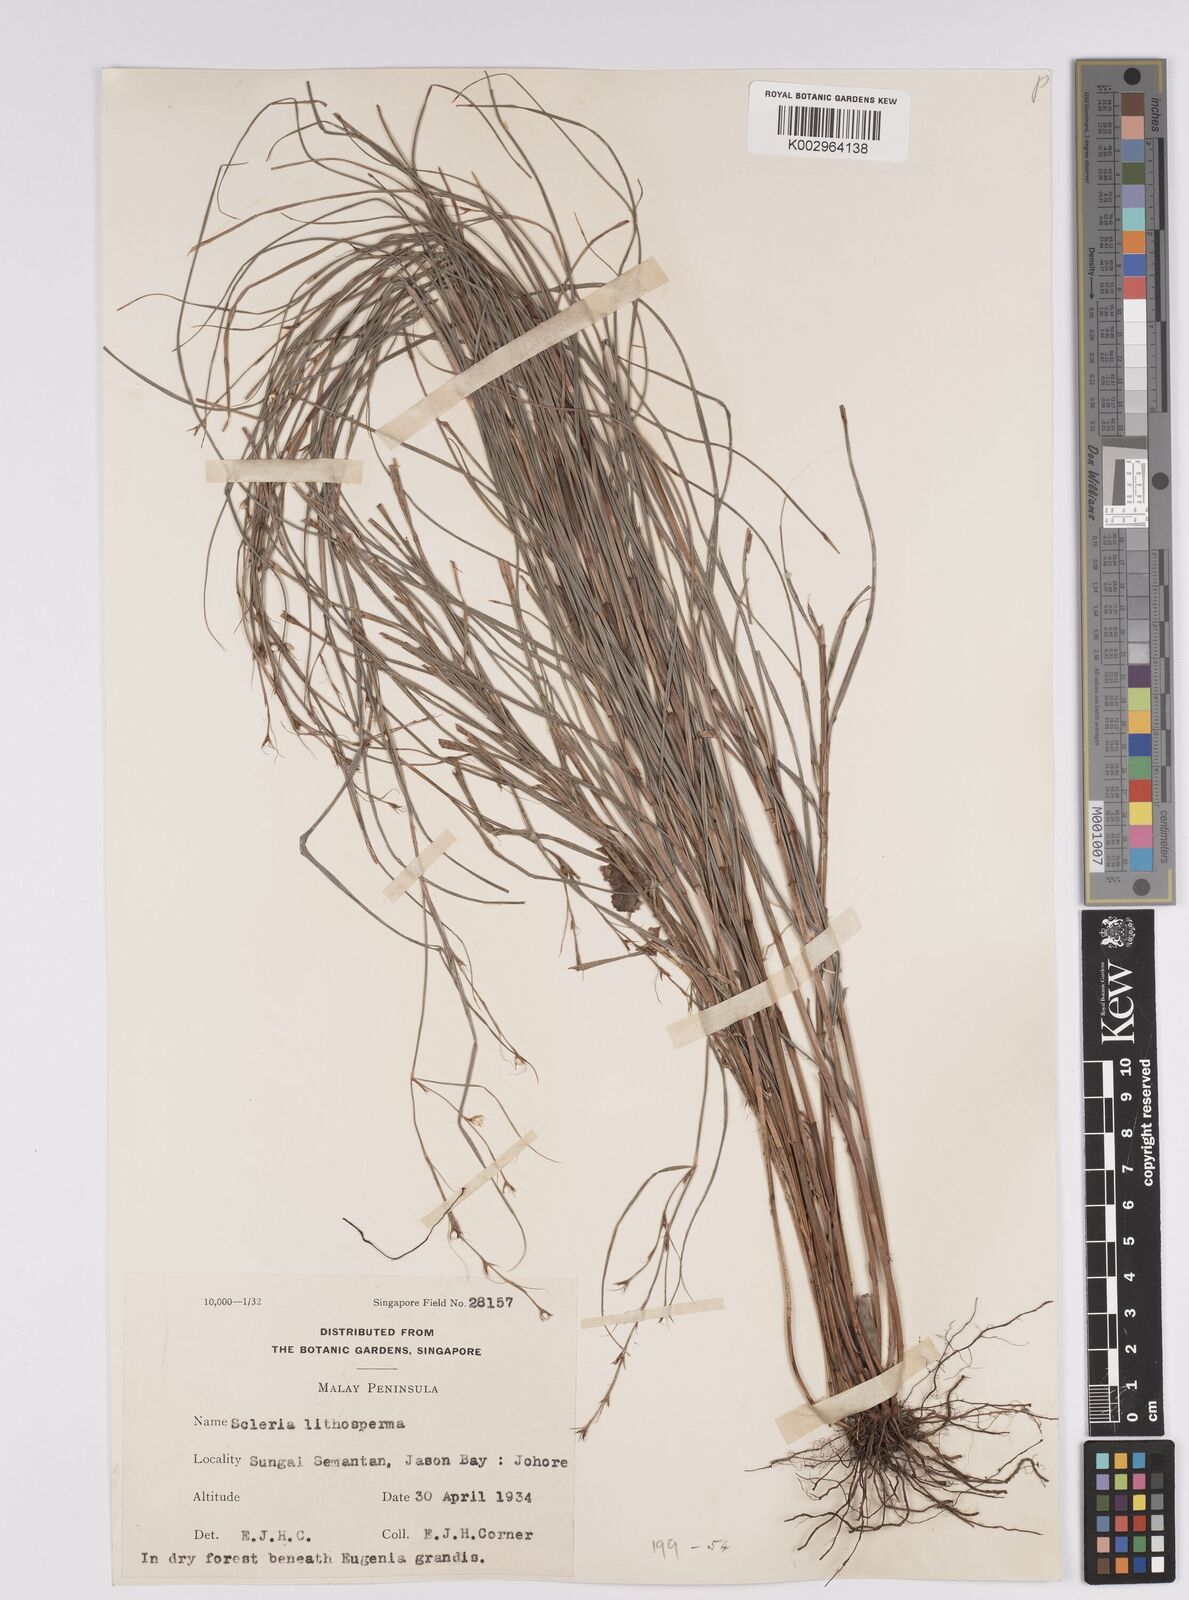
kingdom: Plantae
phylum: Tracheophyta
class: Liliopsida
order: Poales
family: Cyperaceae
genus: Scleria
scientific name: Scleria lithosperma
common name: Florida keys nut-rush
